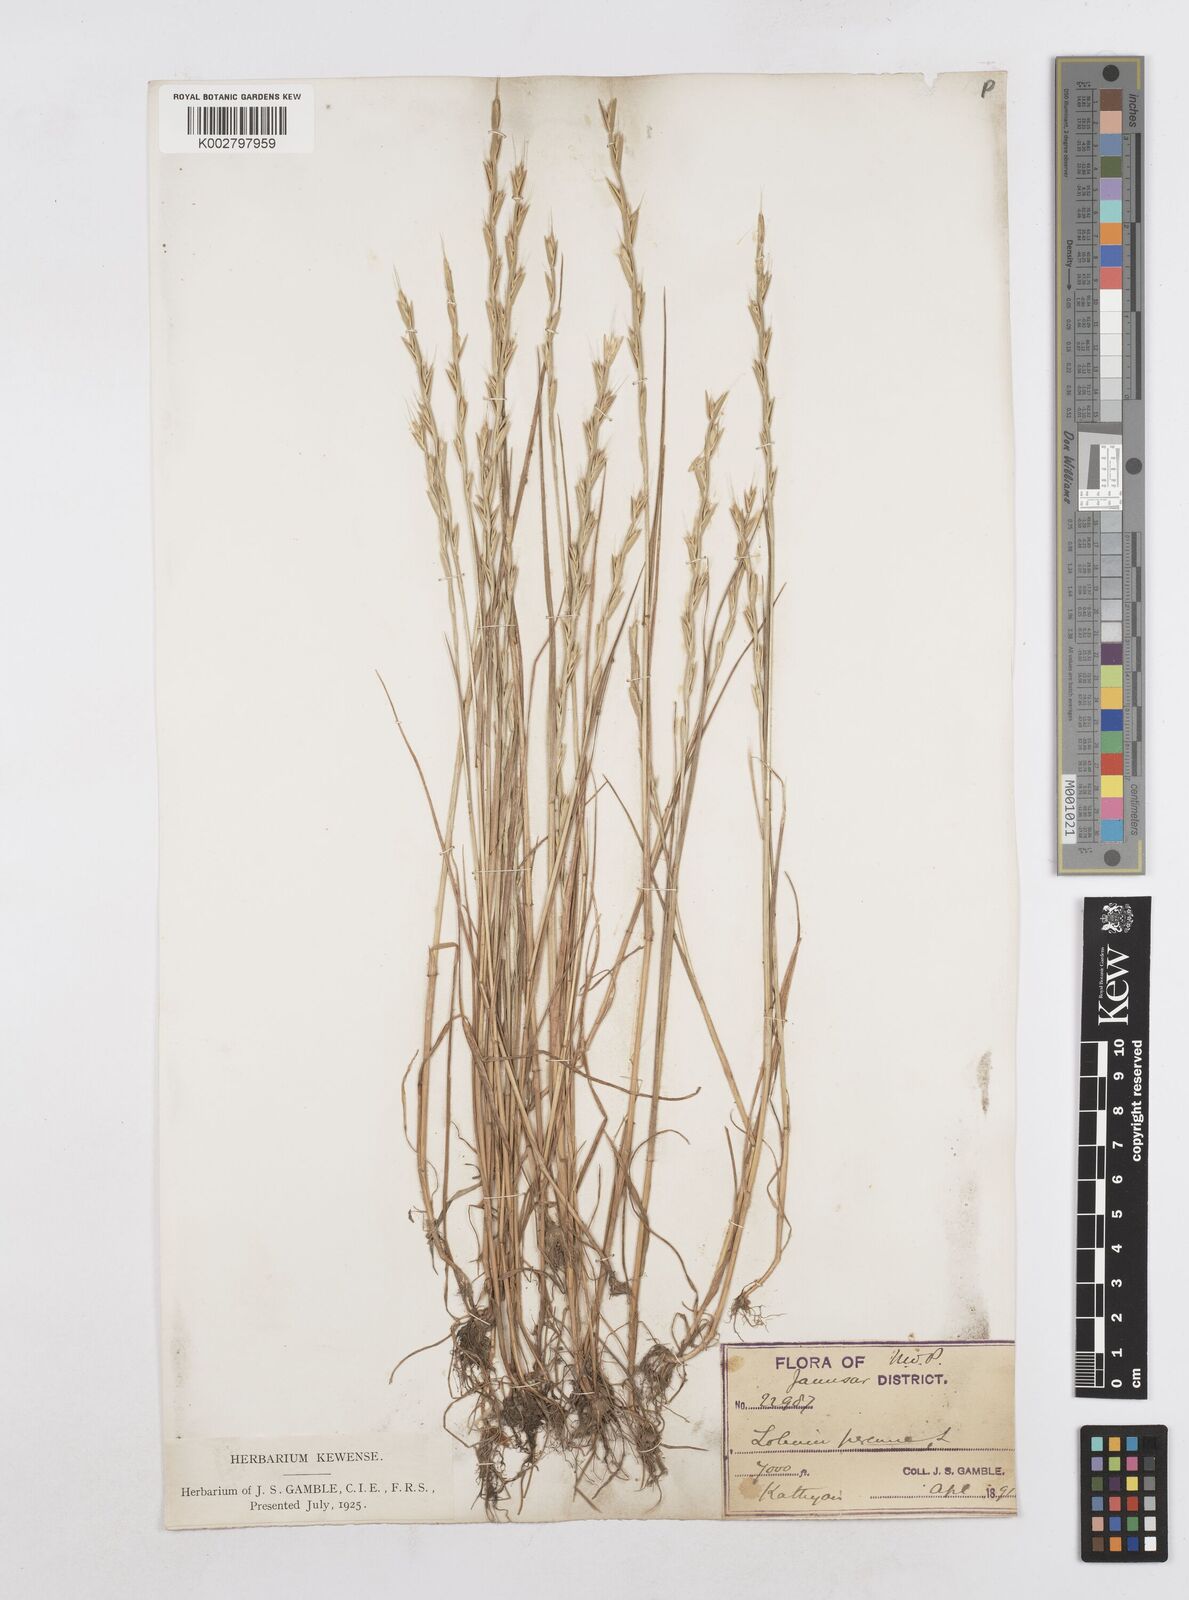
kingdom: Plantae
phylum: Tracheophyta
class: Liliopsida
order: Poales
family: Poaceae
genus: Lolium
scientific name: Lolium temulentum
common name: Darnel
